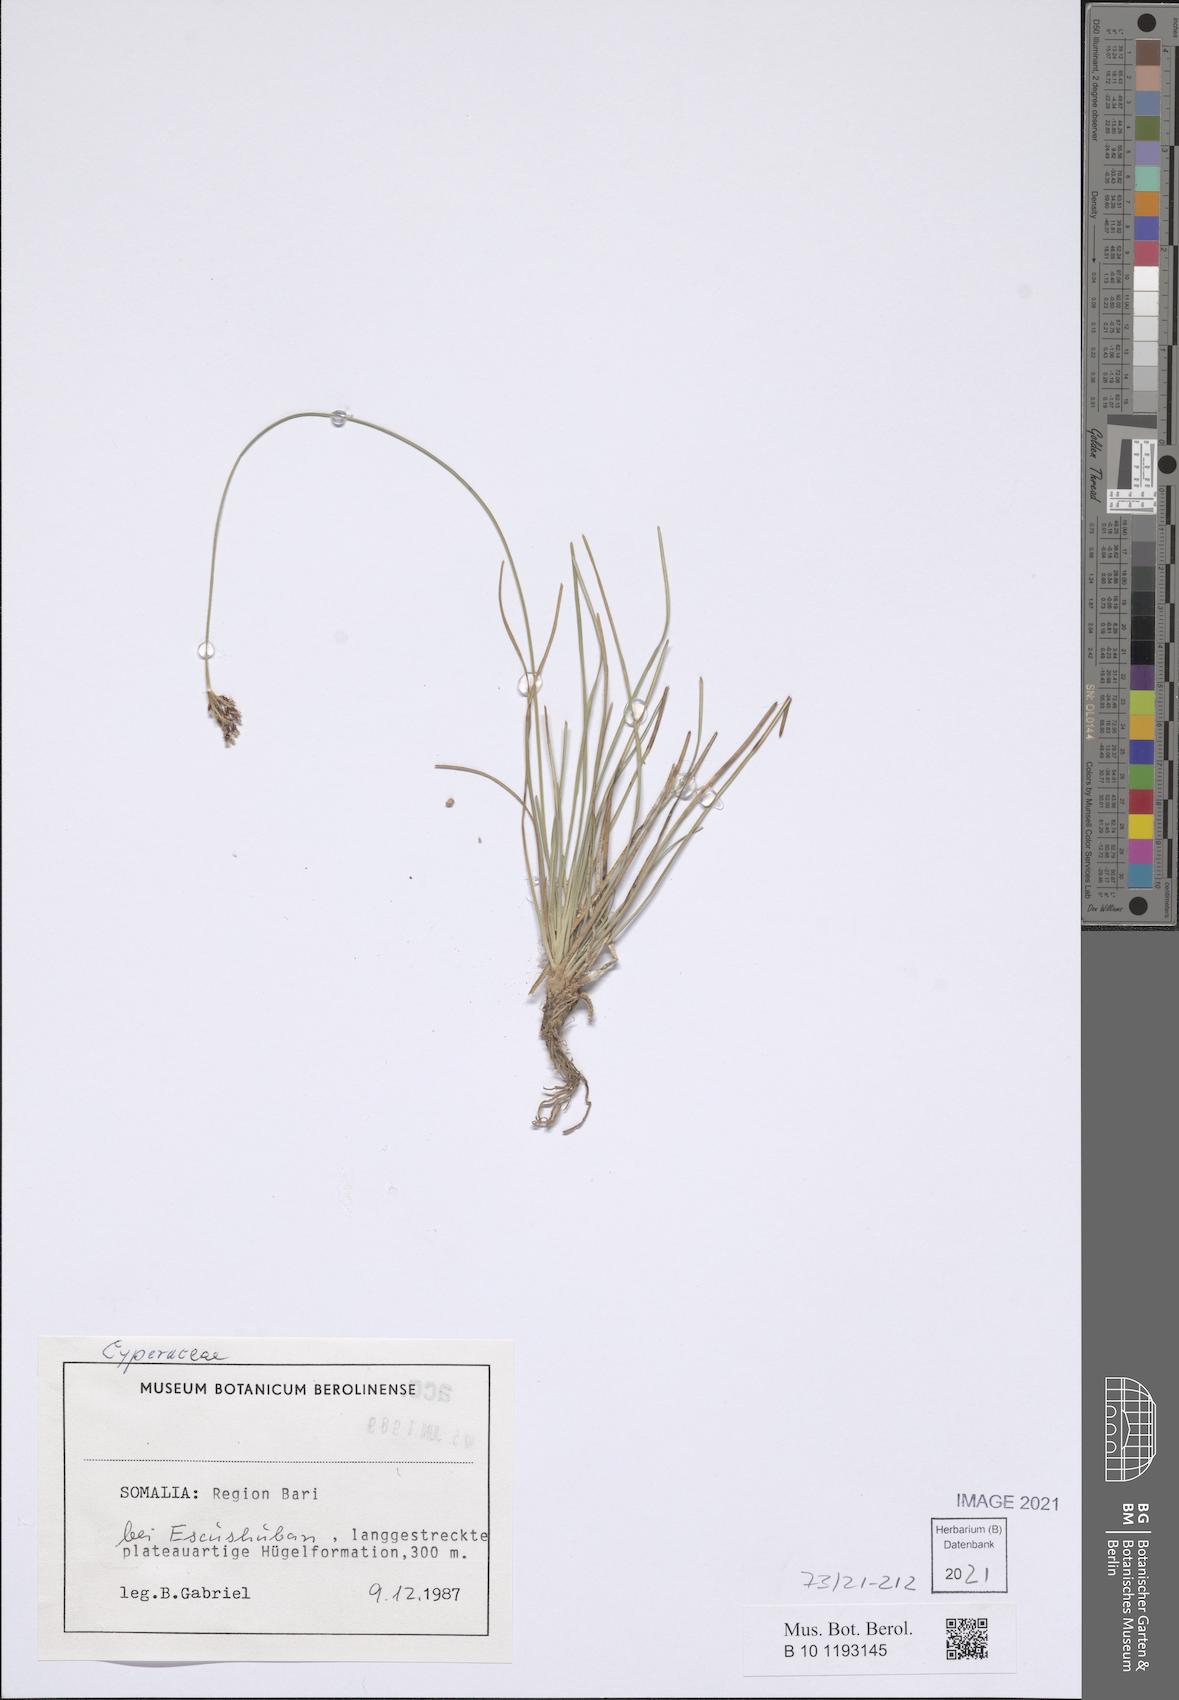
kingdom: Plantae
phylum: Tracheophyta
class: Liliopsida
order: Poales
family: Cyperaceae
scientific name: Cyperaceae
